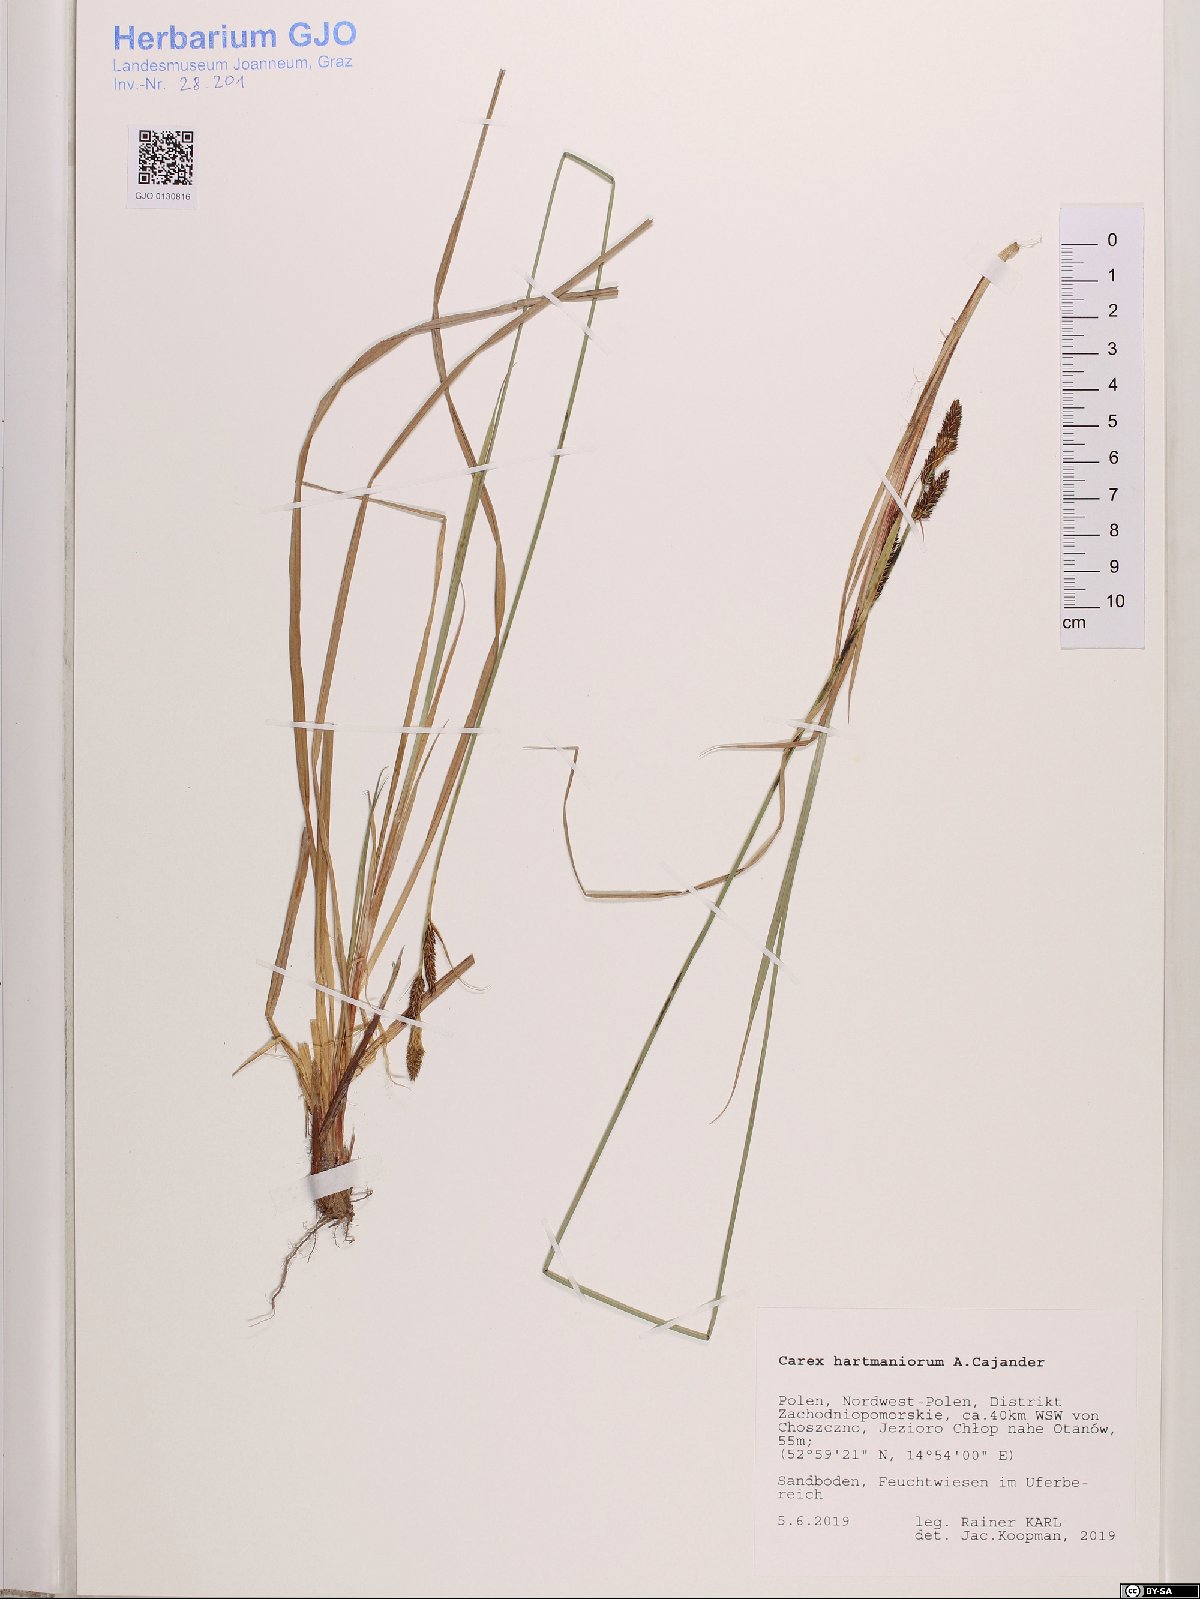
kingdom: Plantae
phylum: Tracheophyta
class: Liliopsida
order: Poales
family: Cyperaceae
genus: Carex
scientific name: Carex hartmaniorum
